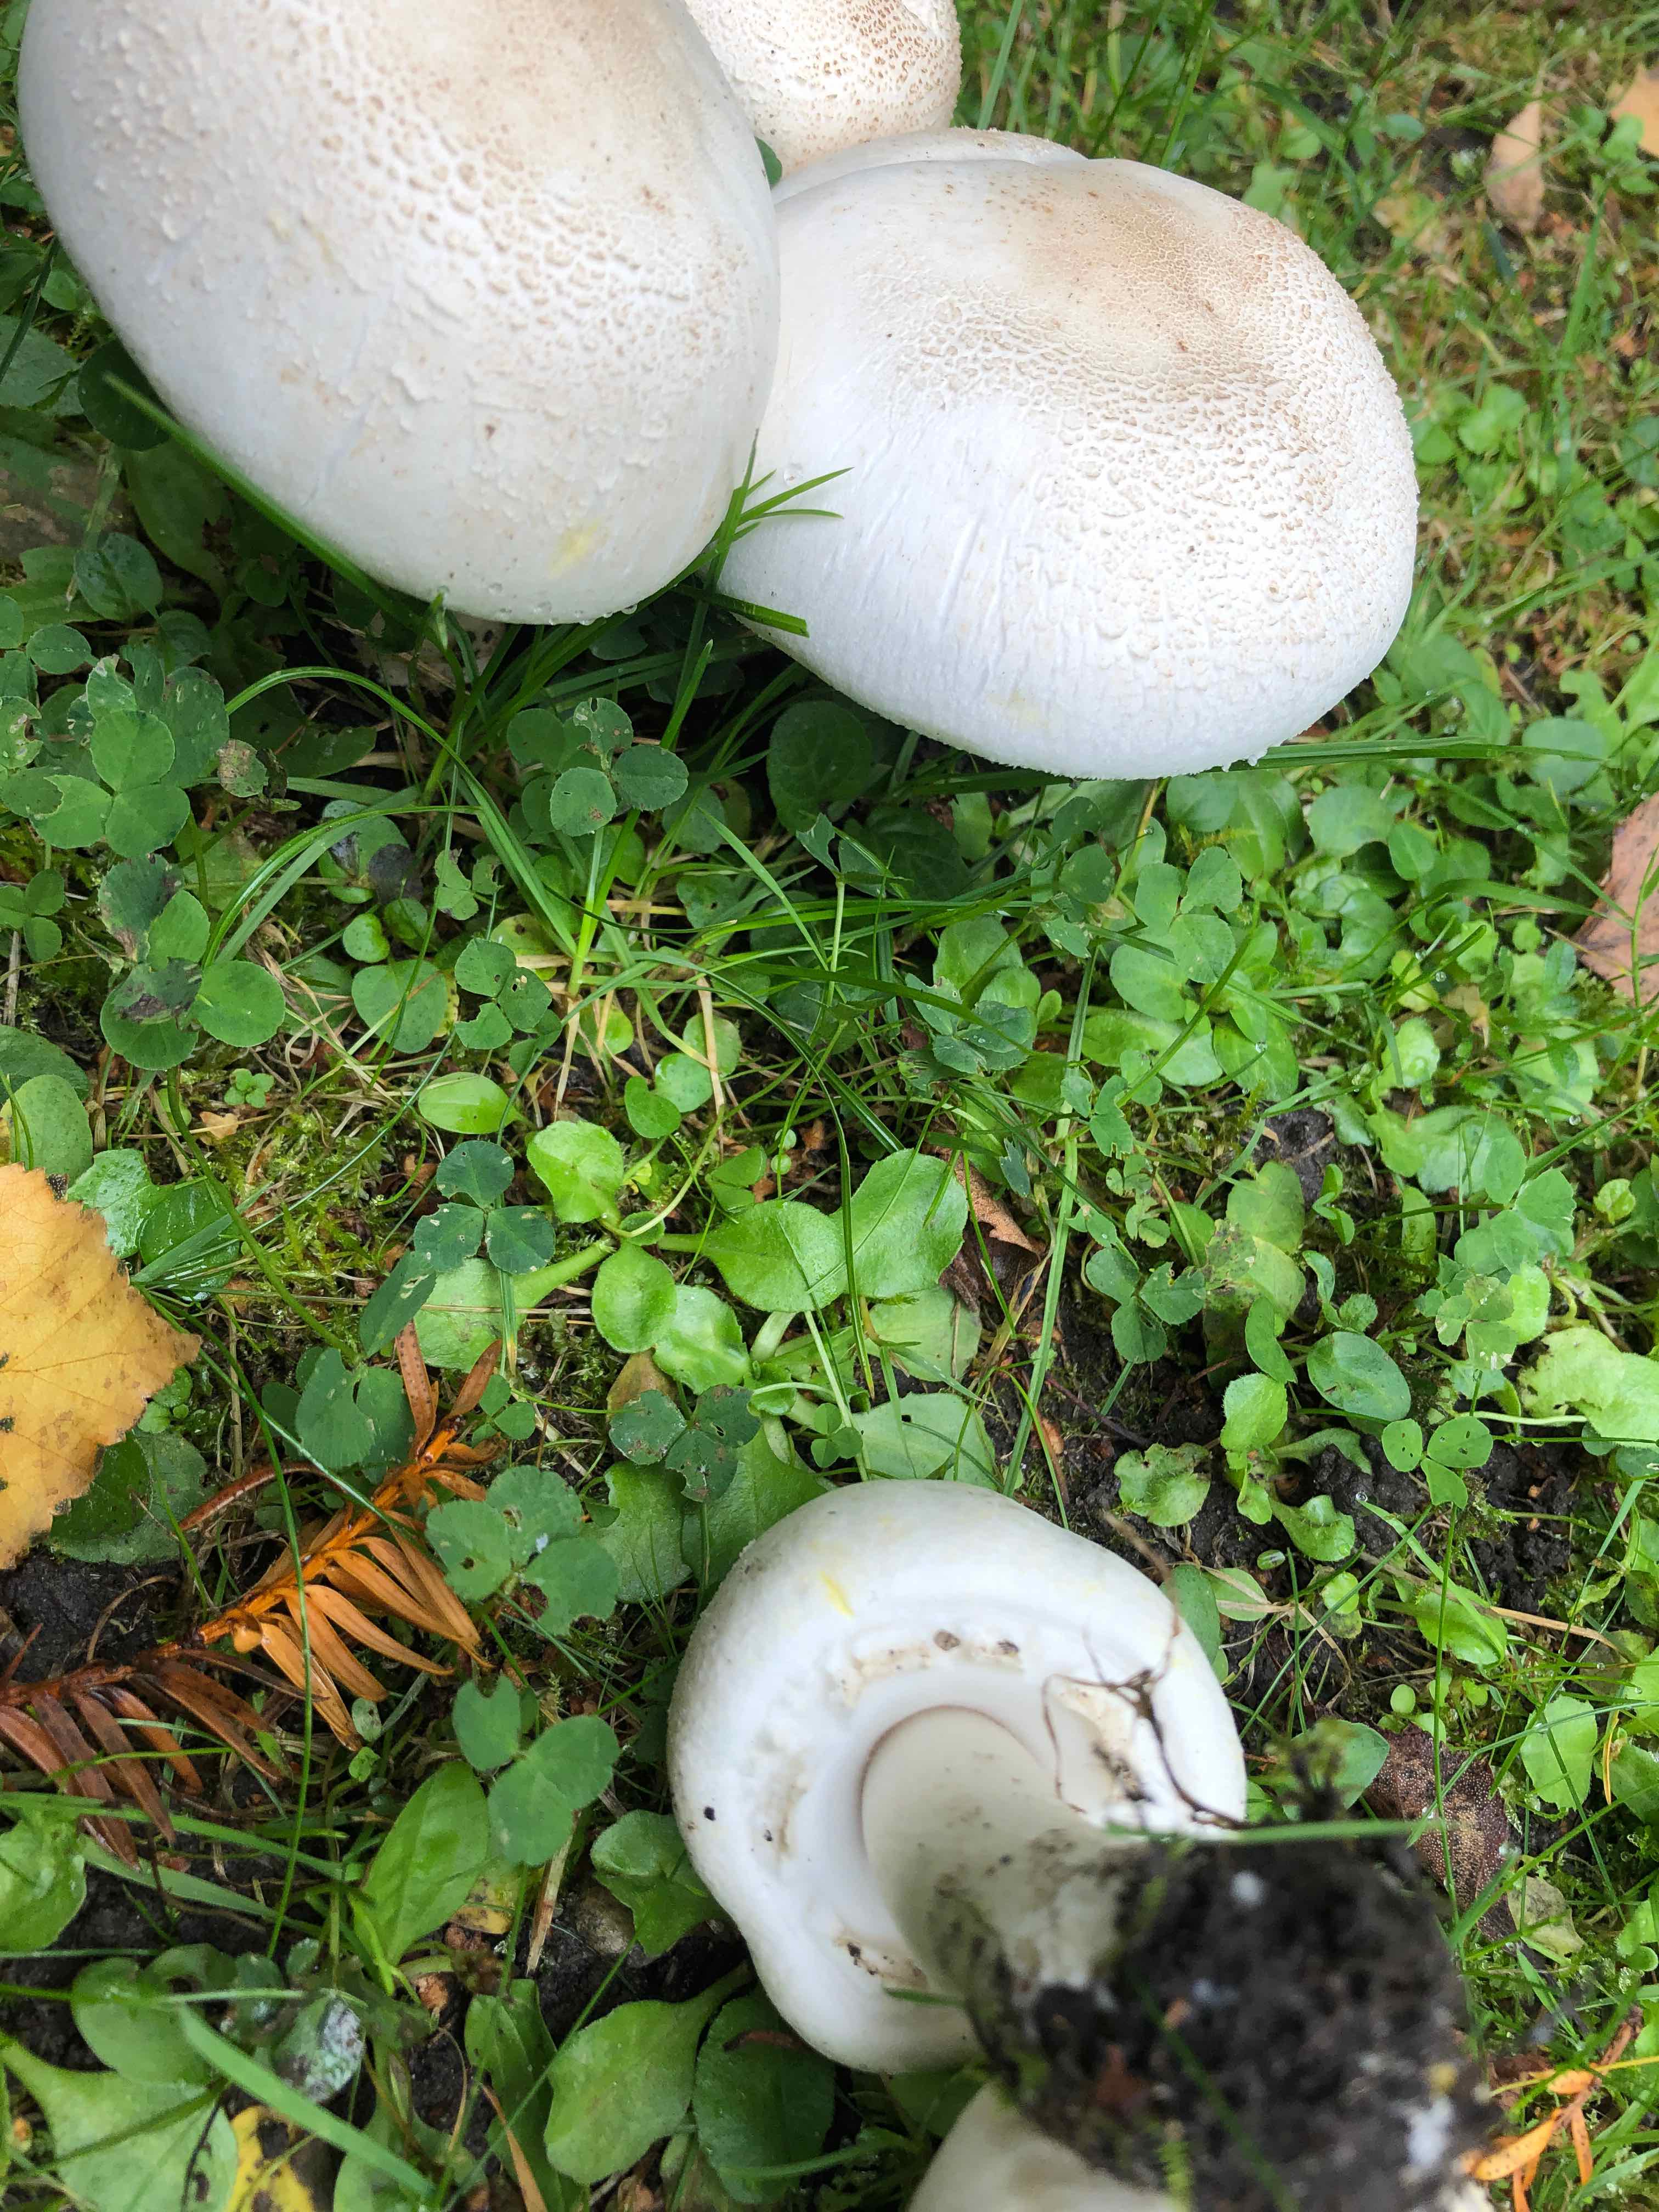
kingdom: Fungi
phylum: Basidiomycota
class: Agaricomycetes
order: Agaricales
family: Agaricaceae
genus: Agaricus
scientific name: Agaricus xanthodermus
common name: karbol-champignon
